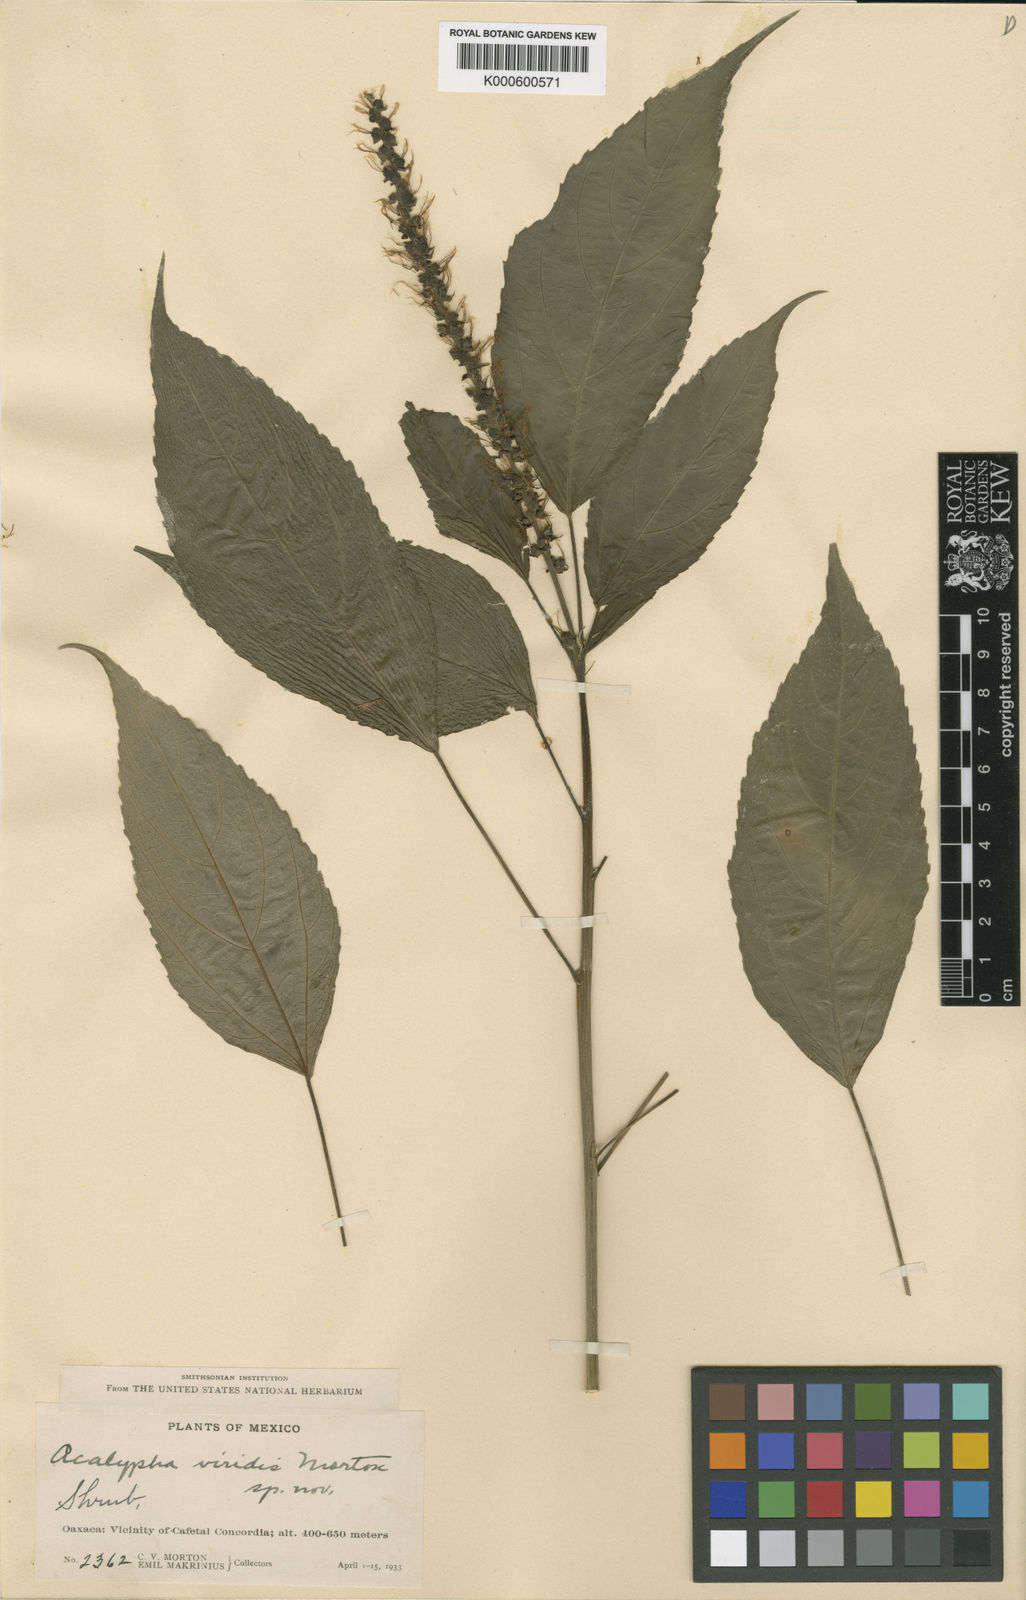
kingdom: Plantae
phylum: Tracheophyta
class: Magnoliopsida
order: Malpighiales
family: Euphorbiaceae
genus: Acalypha
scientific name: Acalypha
